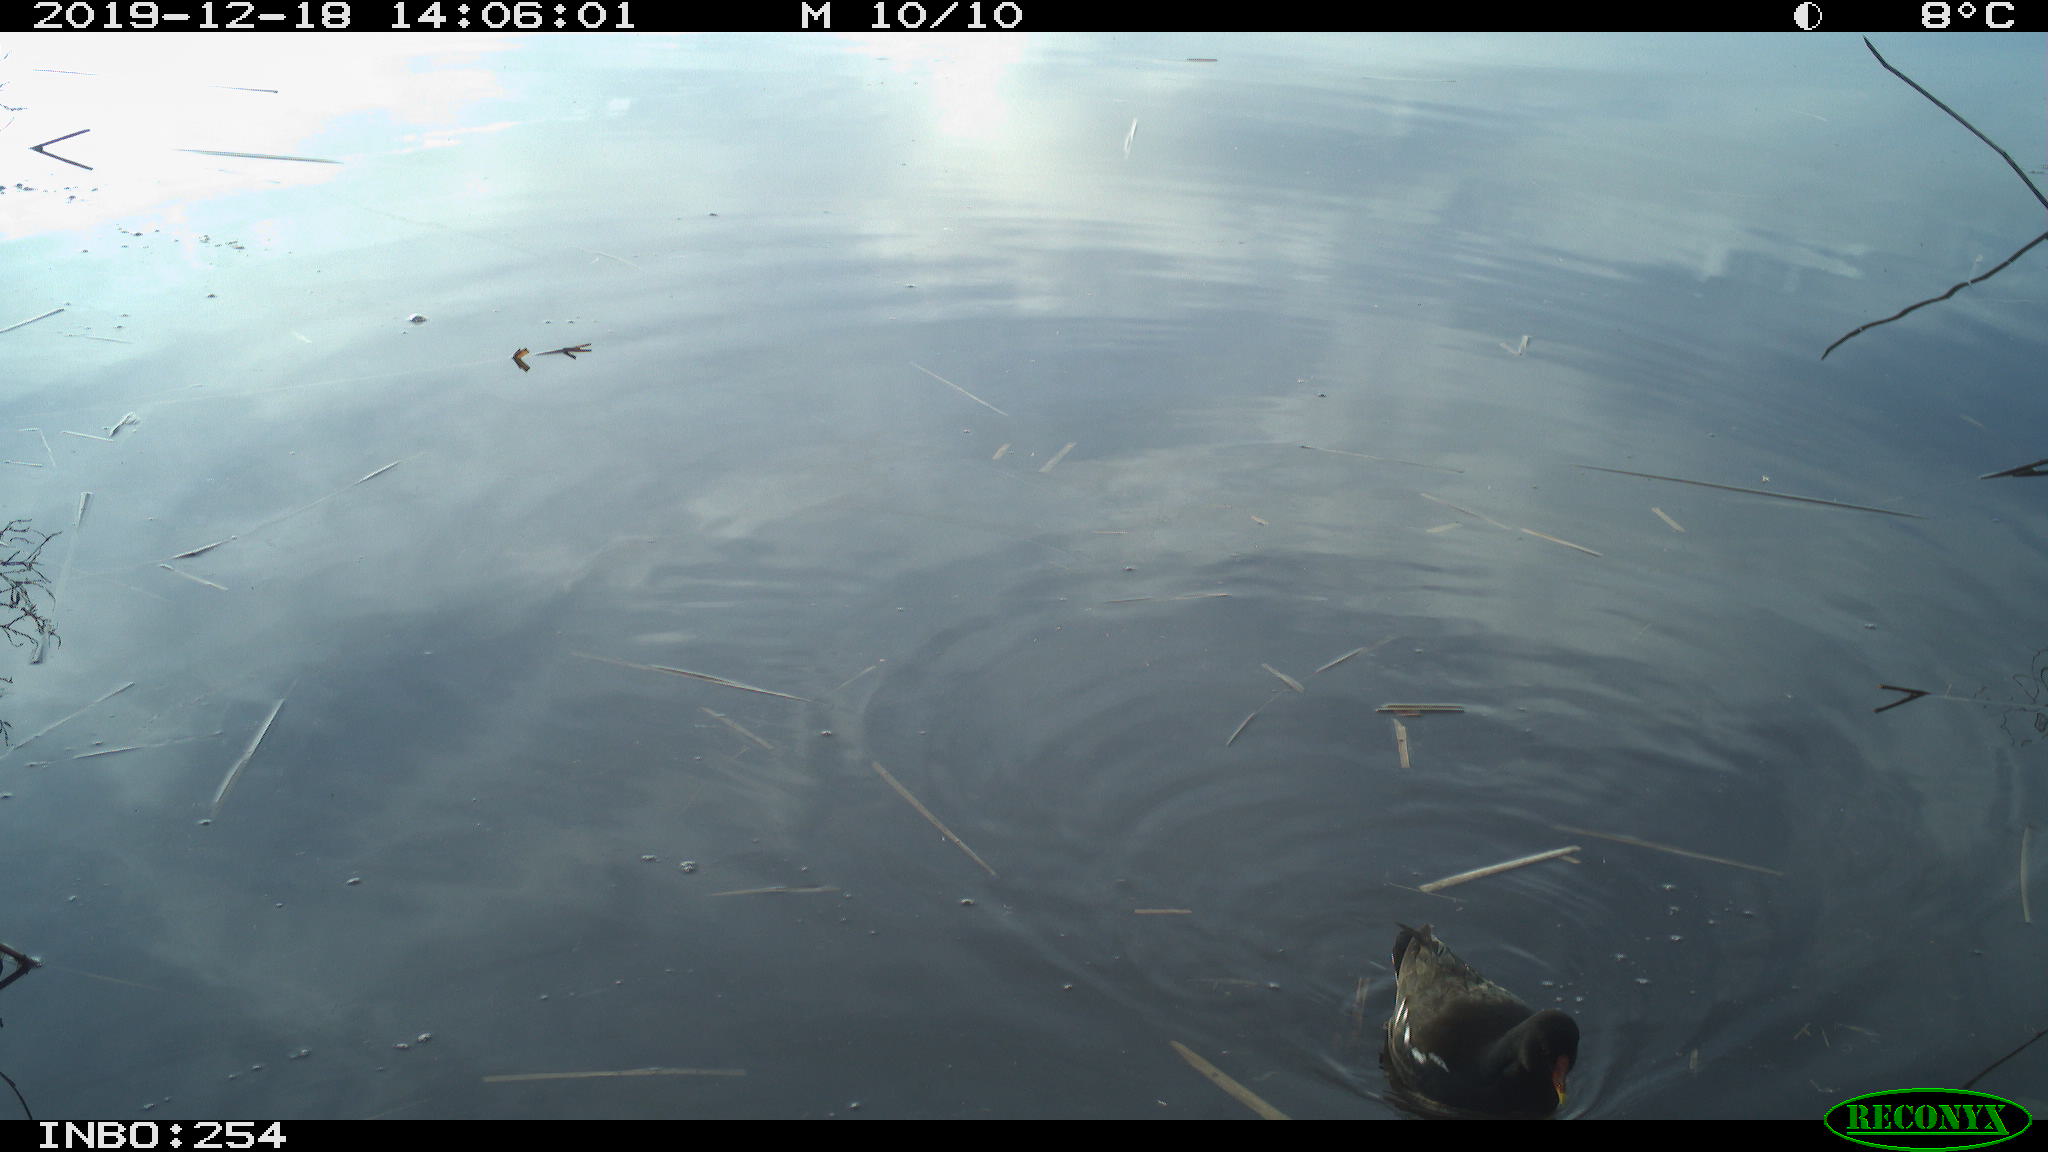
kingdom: Animalia
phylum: Chordata
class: Aves
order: Gruiformes
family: Rallidae
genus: Gallinula
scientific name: Gallinula chloropus
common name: Common moorhen
